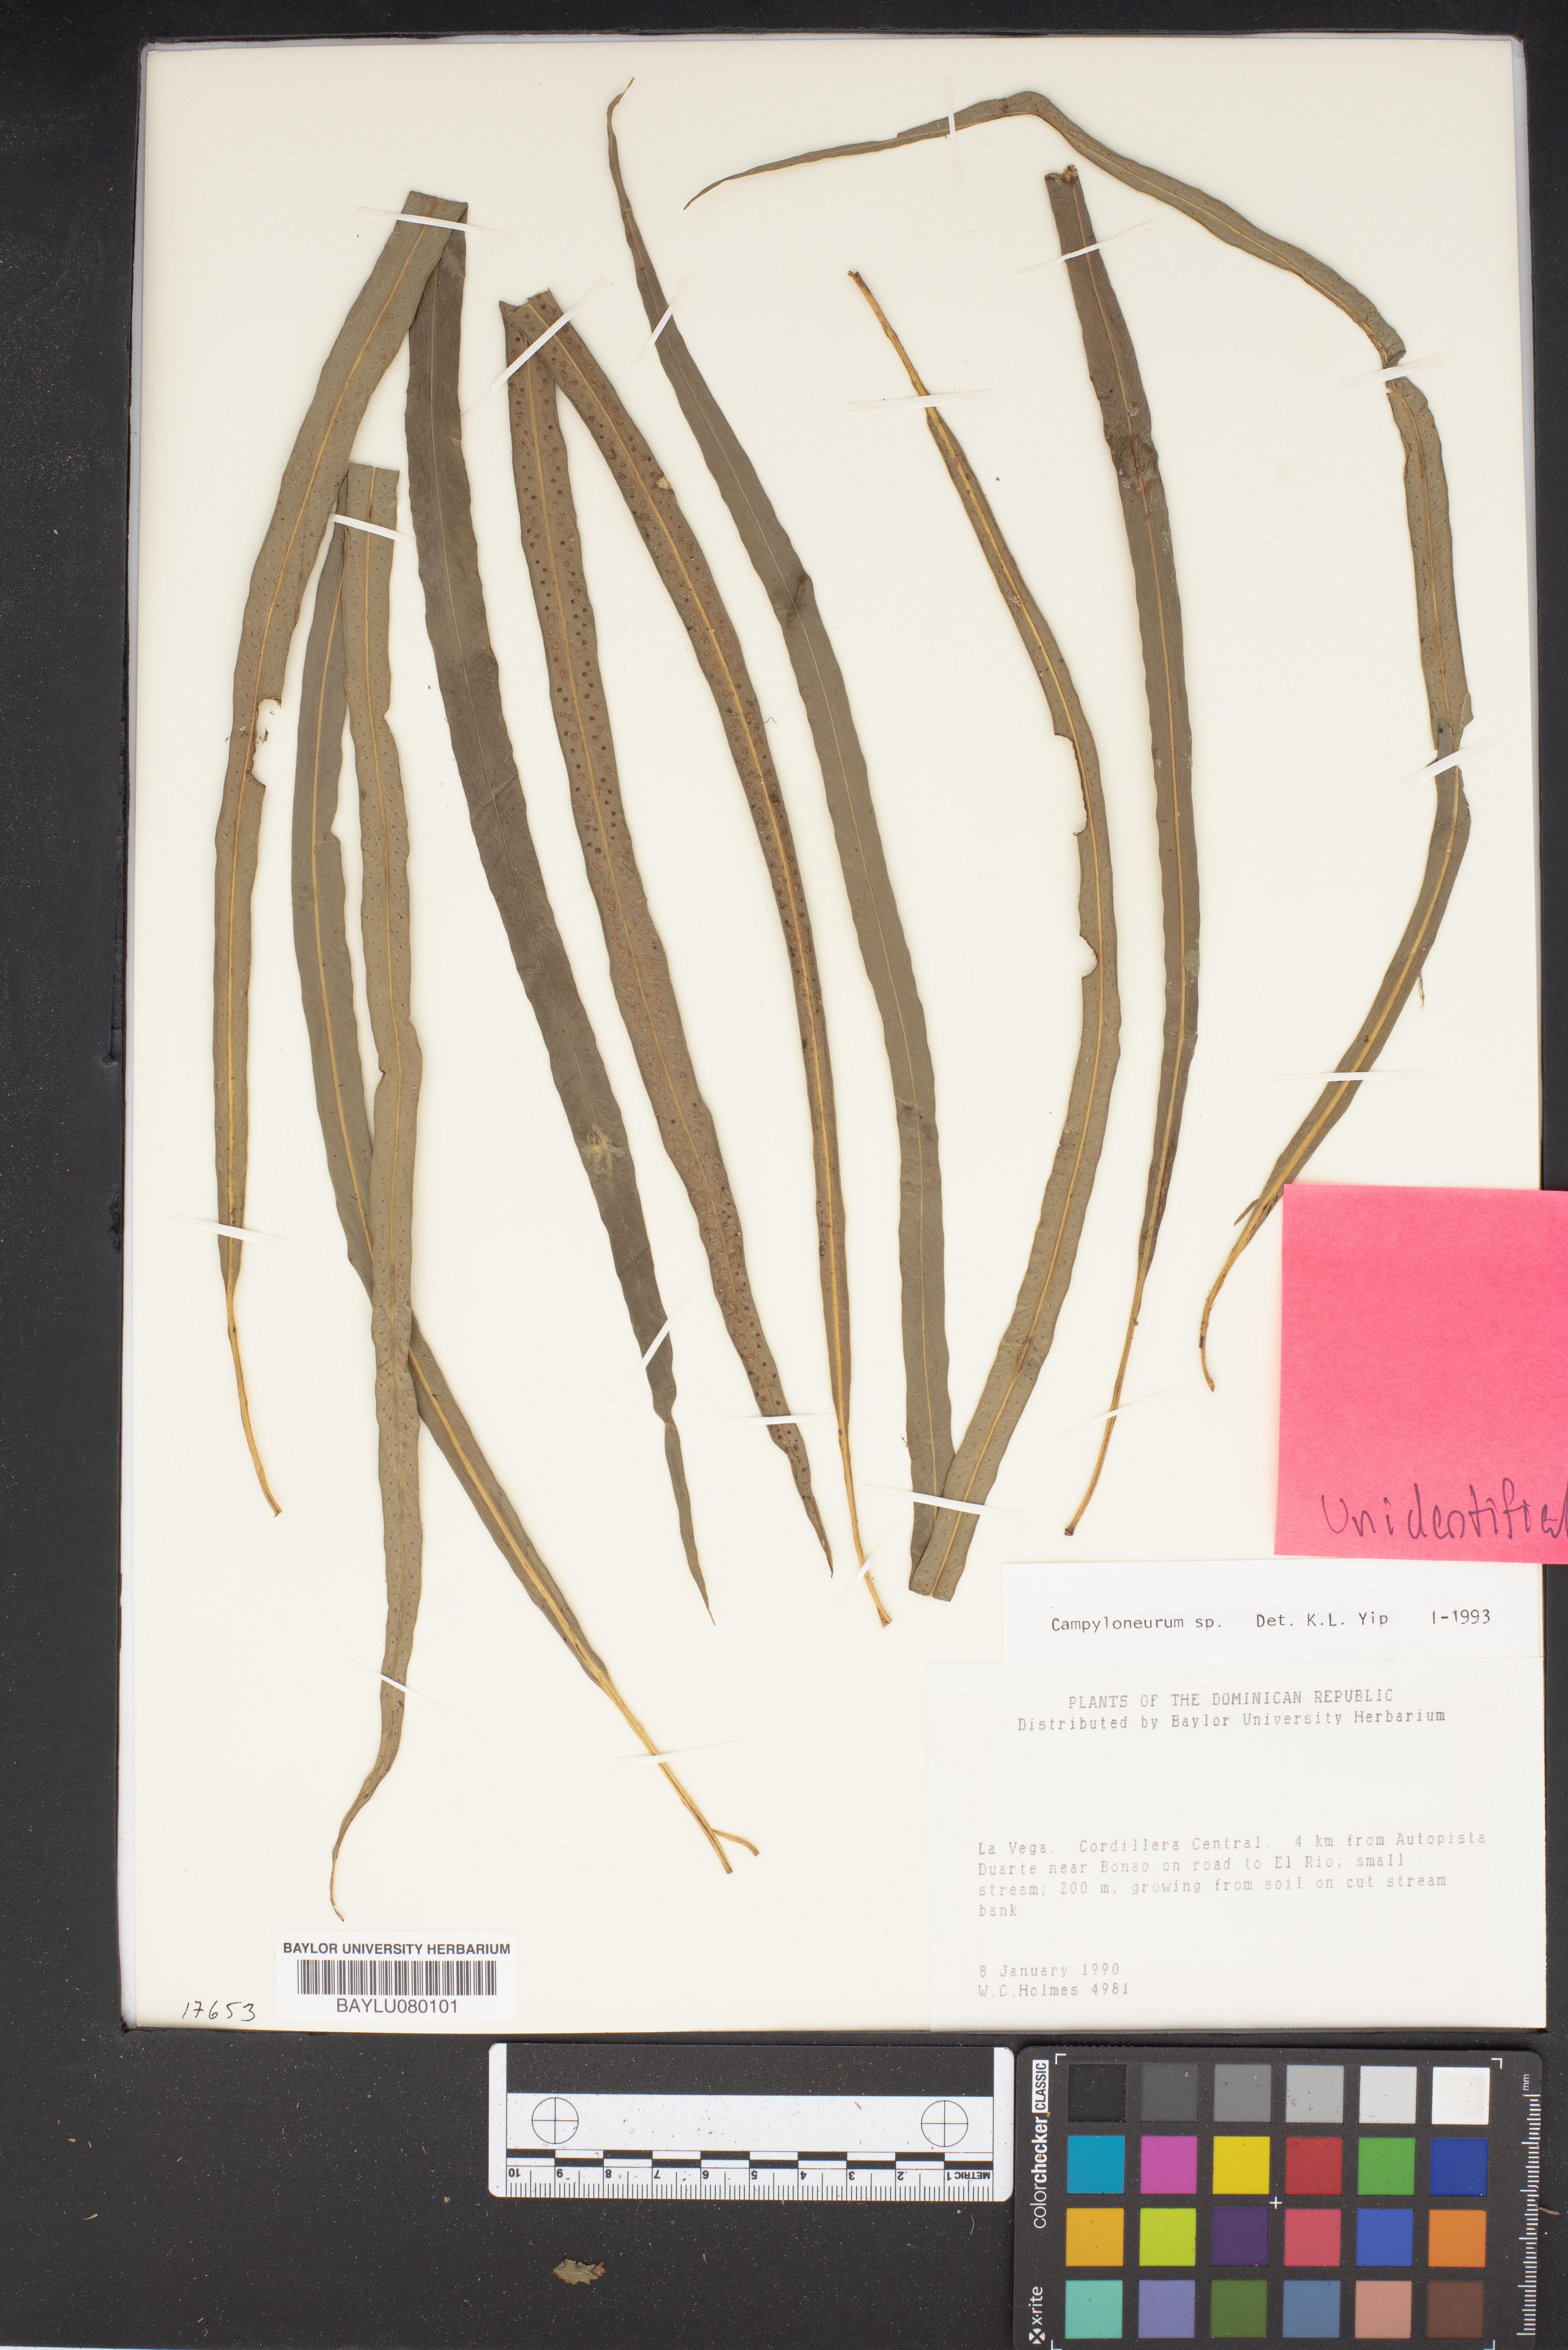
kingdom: Plantae
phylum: Tracheophyta
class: Polypodiopsida
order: Polypodiales
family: Polypodiaceae
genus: Campyloneurum
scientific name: Campyloneurum
